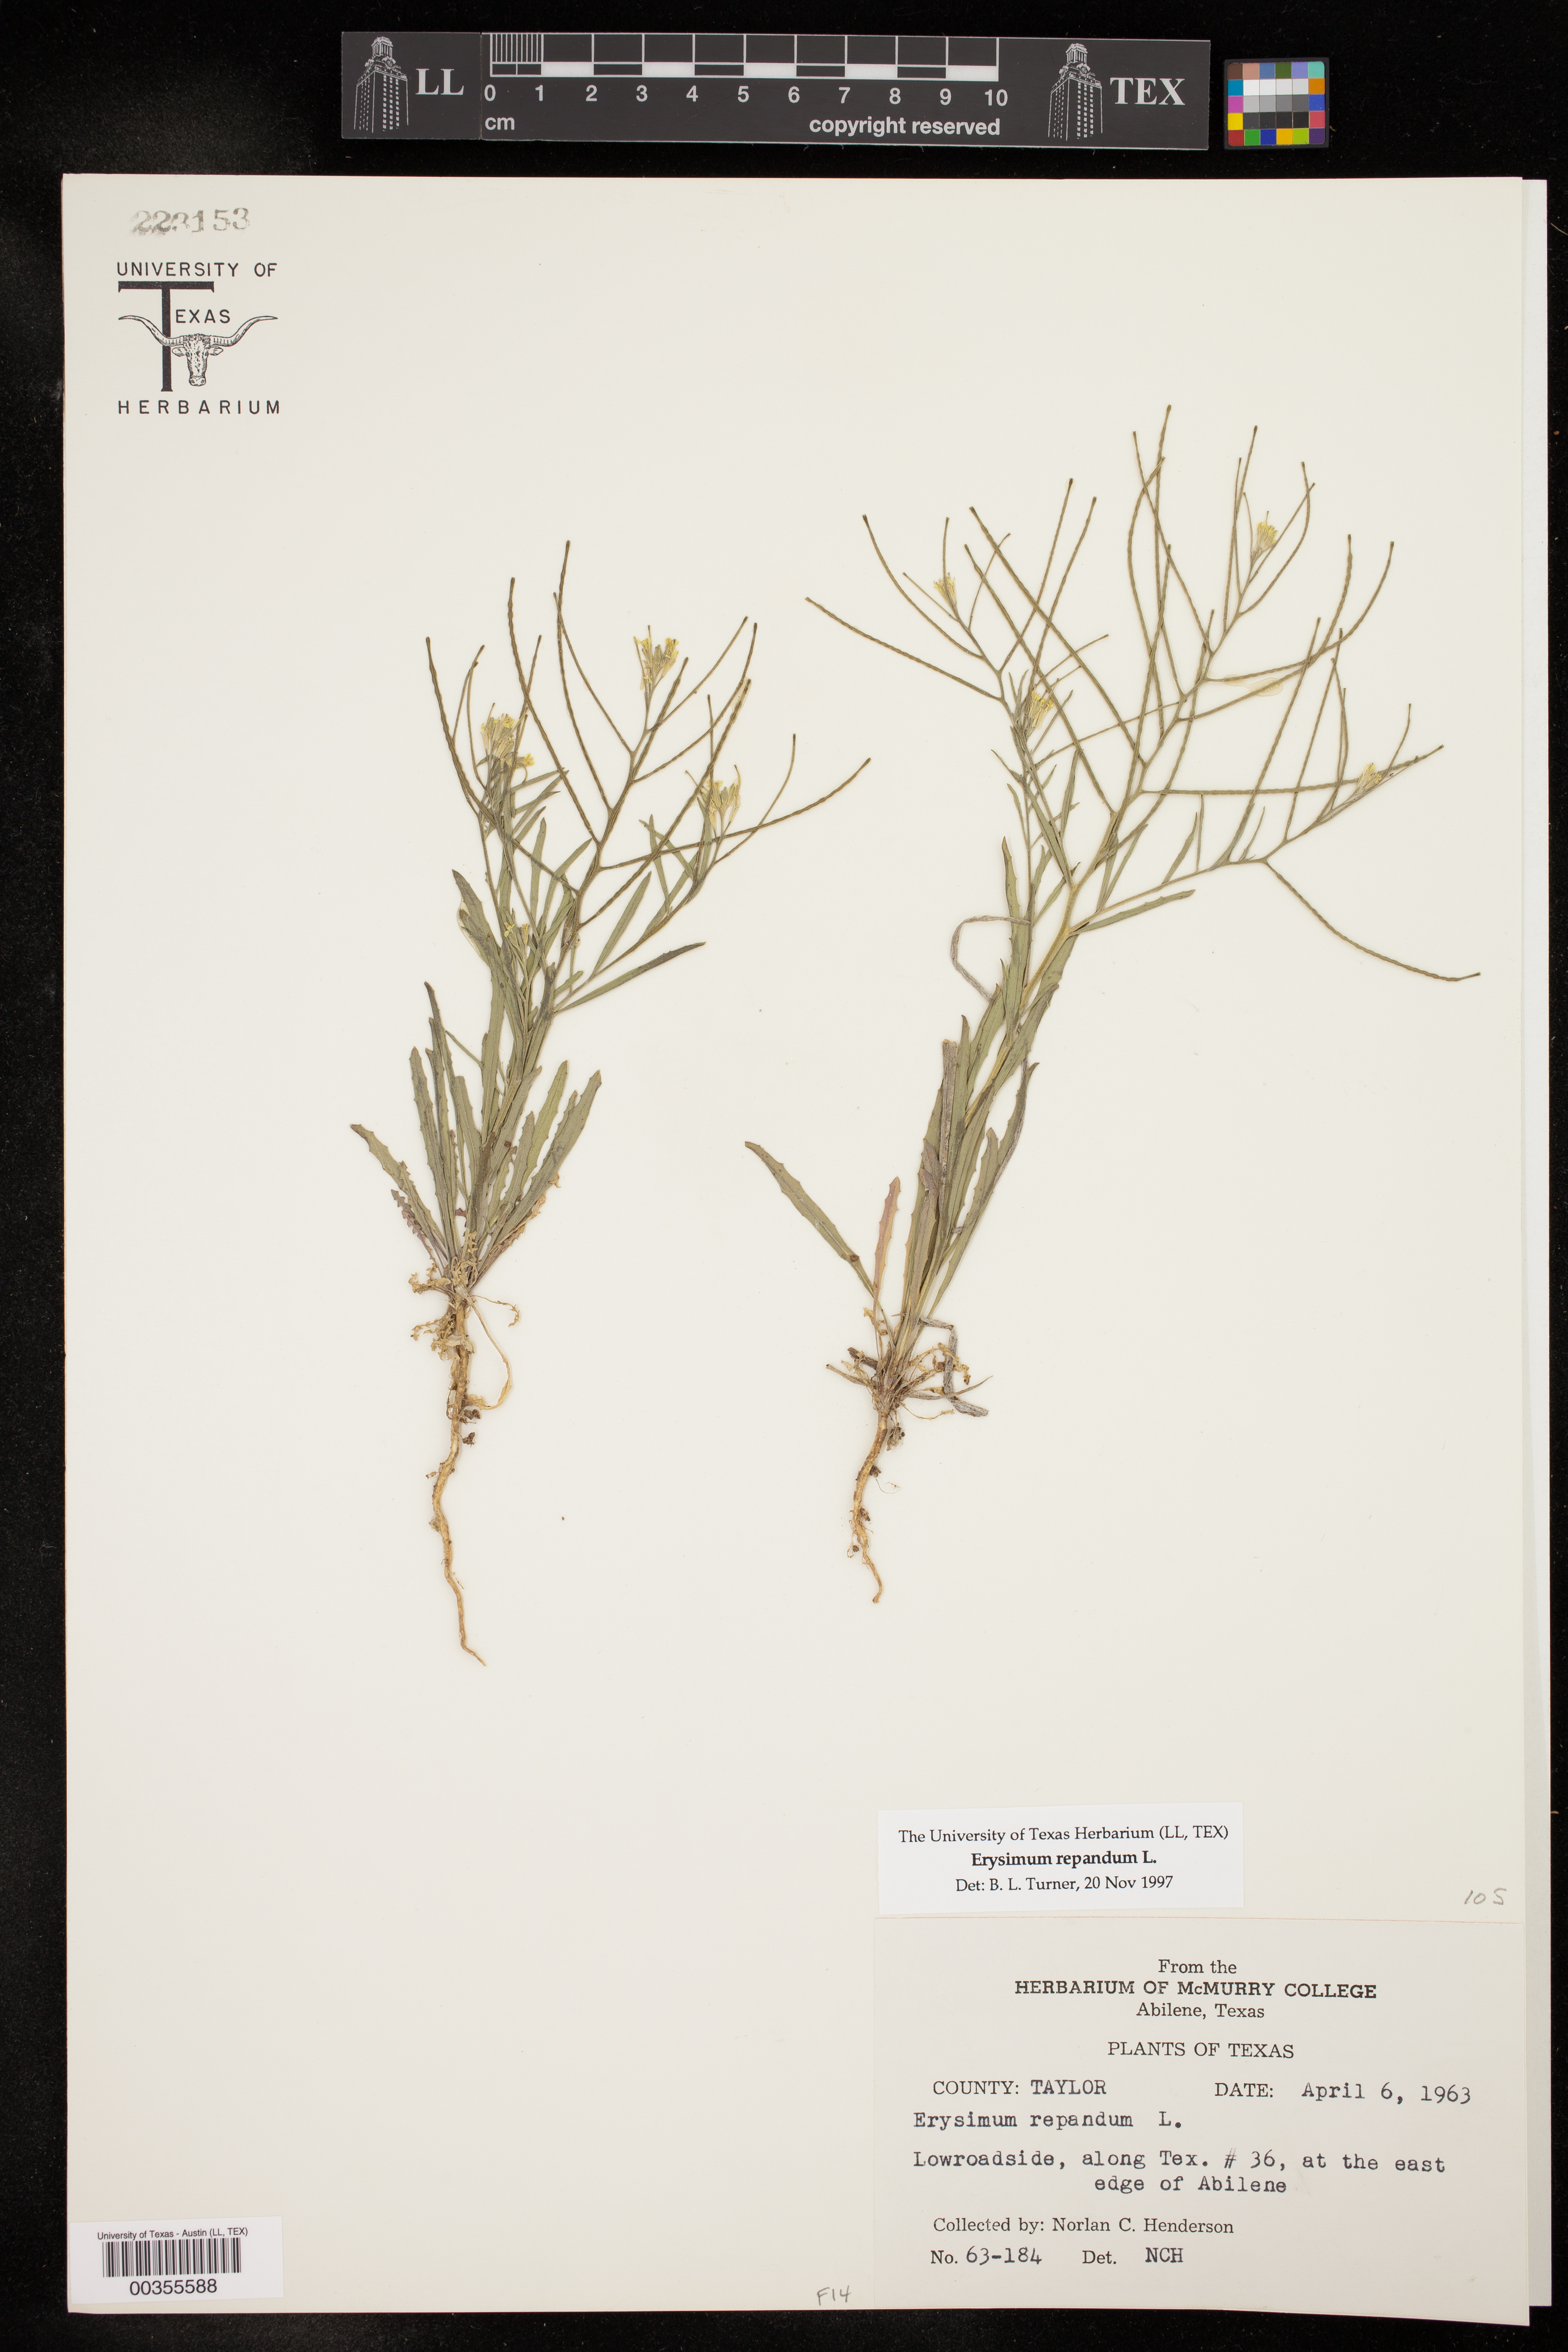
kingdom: Plantae
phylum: Tracheophyta
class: Magnoliopsida
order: Brassicales
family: Brassicaceae
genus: Erysimum
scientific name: Erysimum repandum
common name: Spreading wallflower
